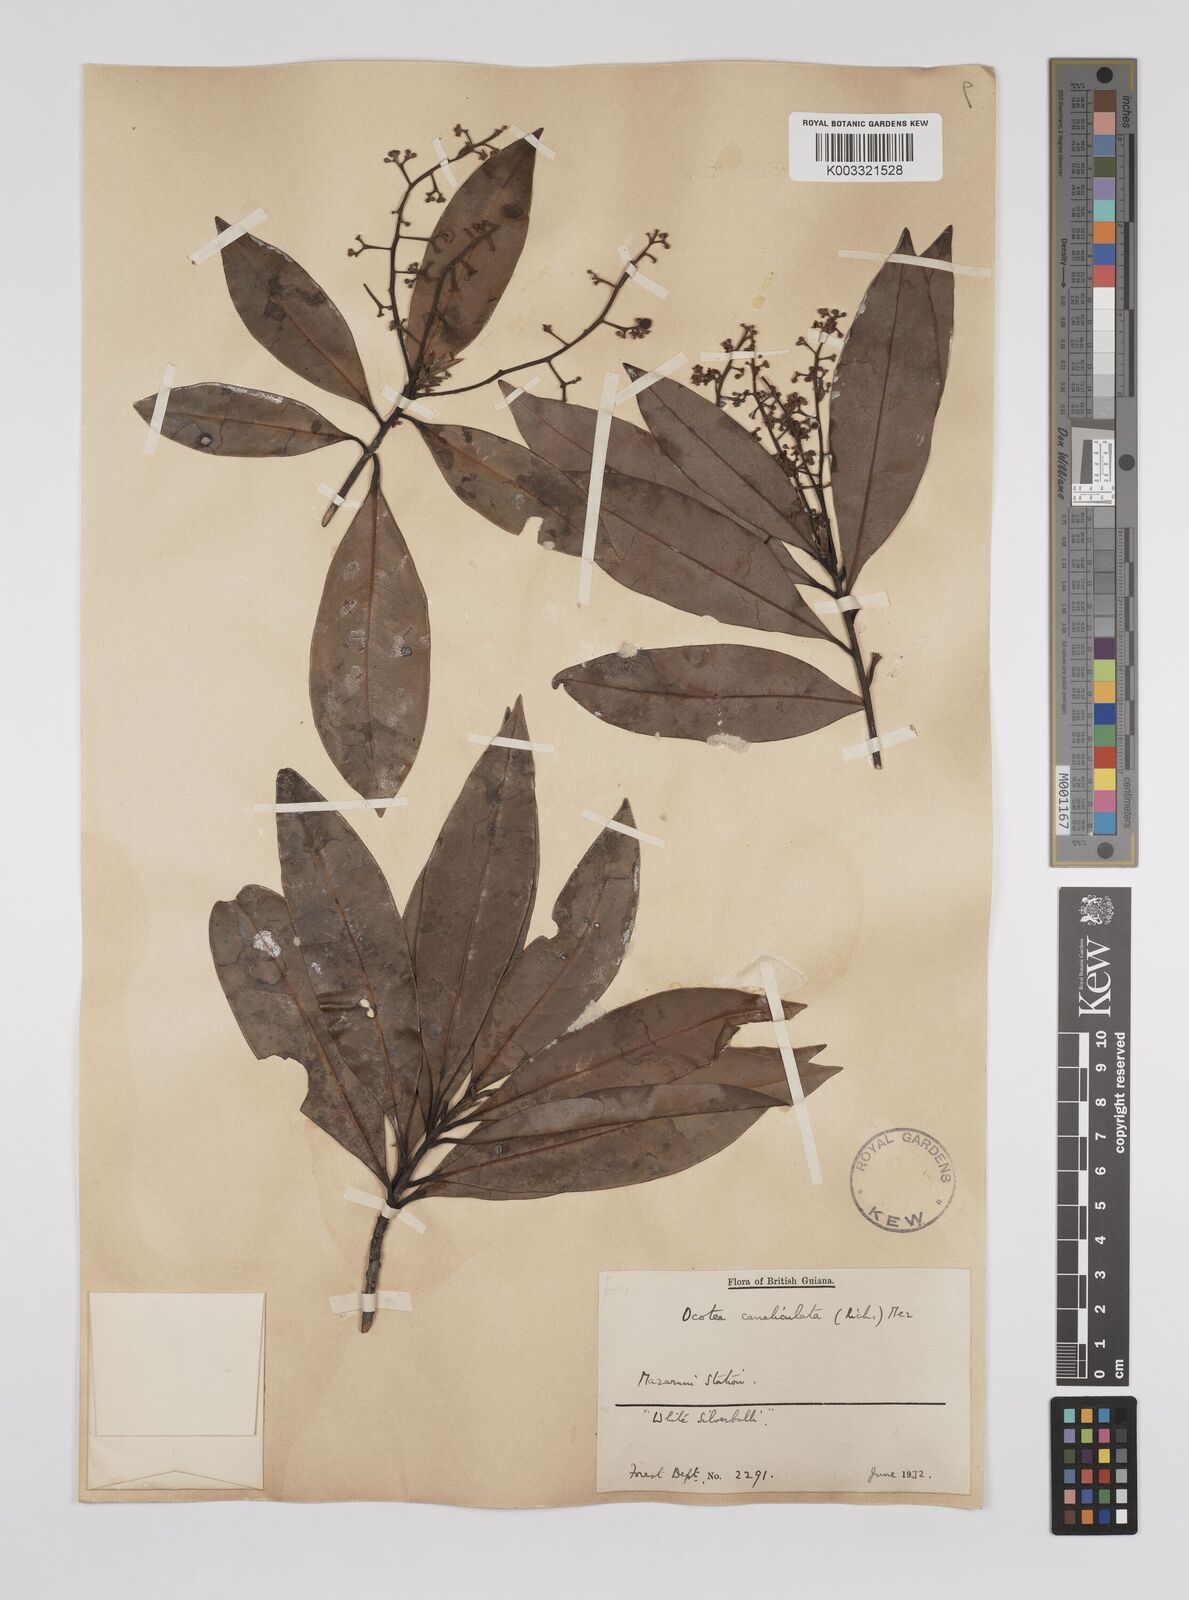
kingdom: Plantae
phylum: Tracheophyta
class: Magnoliopsida
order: Laurales
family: Lauraceae
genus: Ocotea
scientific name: Ocotea canaliculata
